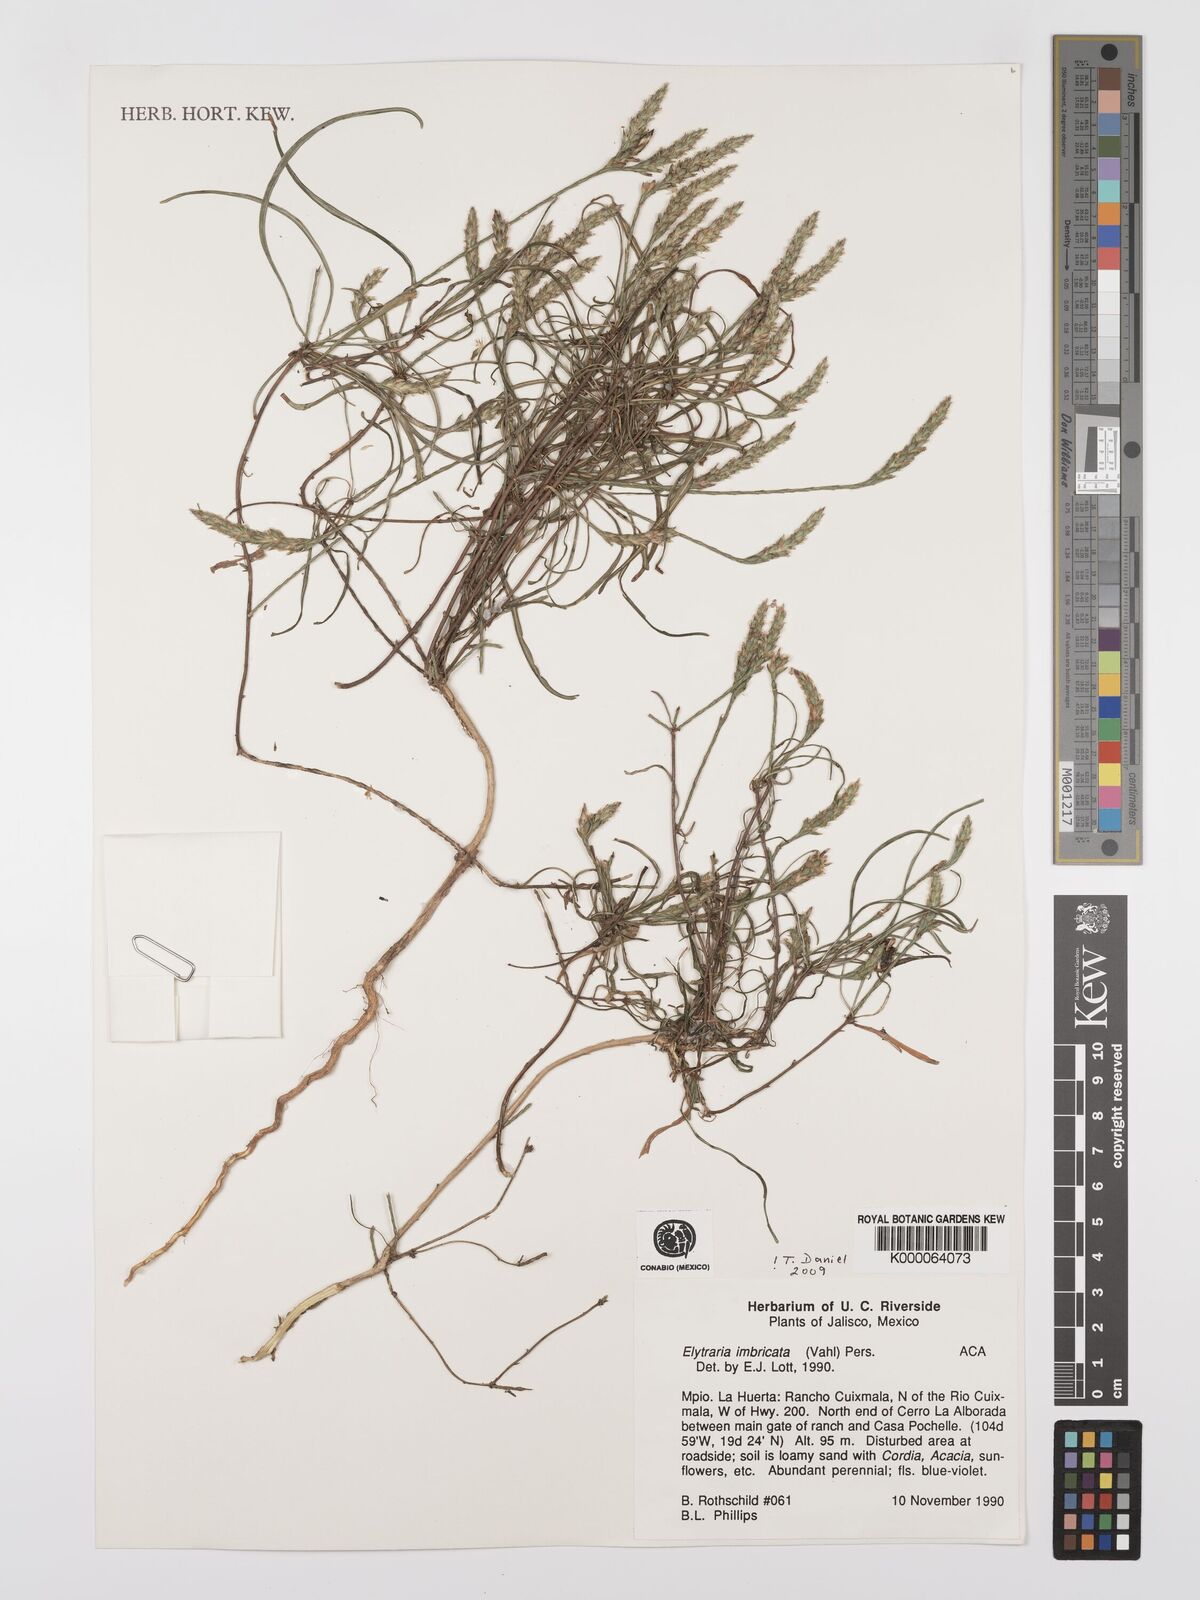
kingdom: Plantae
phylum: Tracheophyta
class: Magnoliopsida
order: Lamiales
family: Acanthaceae
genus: Elytraria
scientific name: Elytraria imbricata
